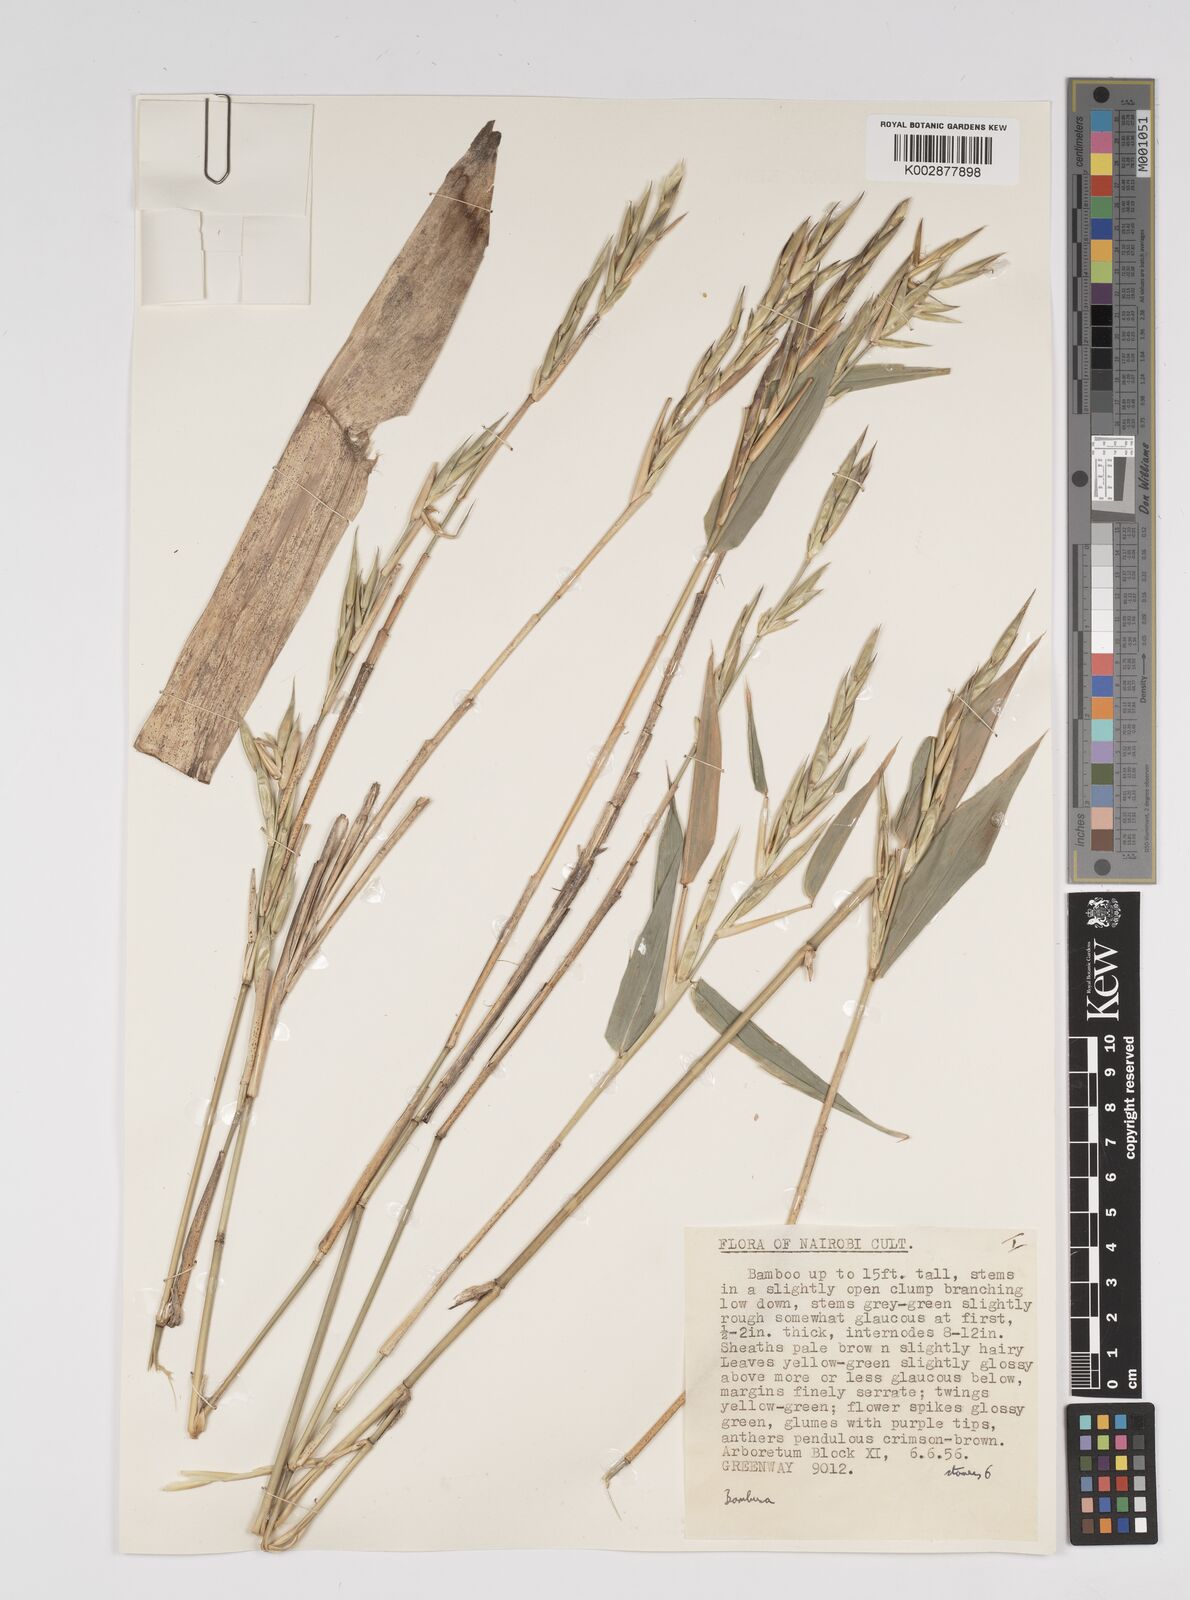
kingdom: Plantae
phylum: Tracheophyta
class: Liliopsida
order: Poales
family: Poaceae
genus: Bambusa
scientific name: Bambusa
